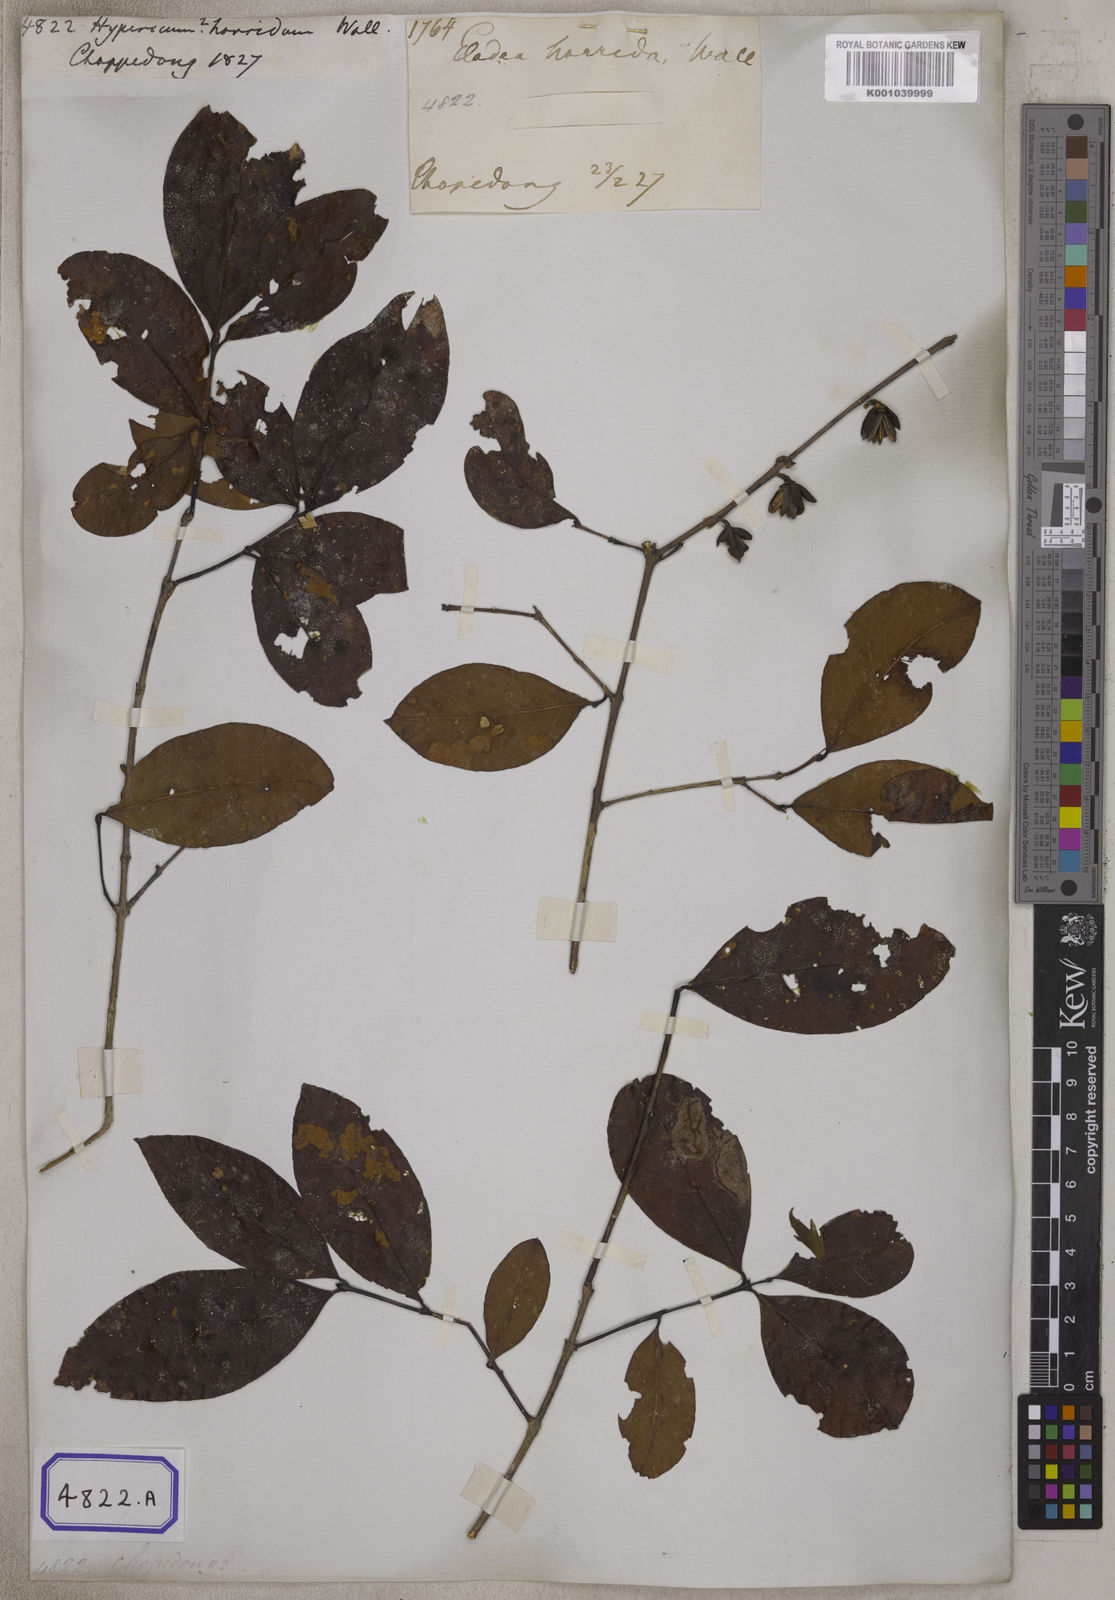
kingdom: Plantae
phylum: Tracheophyta
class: Magnoliopsida
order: Malpighiales
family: Hypericaceae
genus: Cratoxylum
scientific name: Cratoxylum cochinchinense
